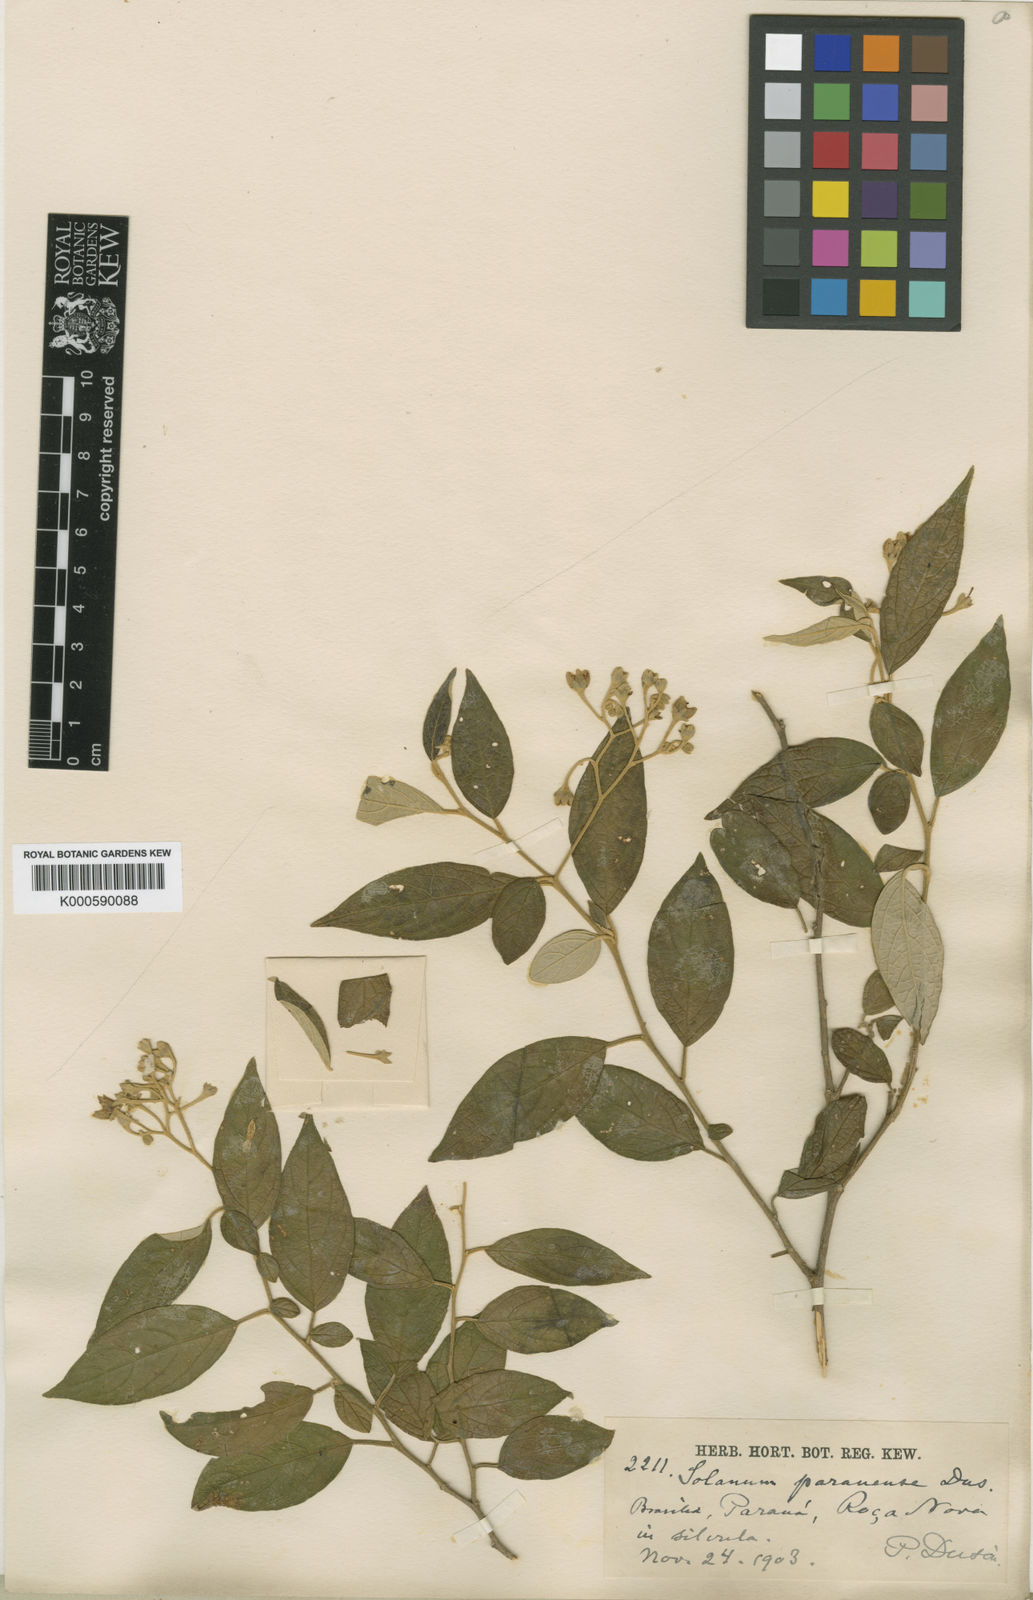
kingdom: Plantae
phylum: Tracheophyta
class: Magnoliopsida
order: Solanales
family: Solanaceae
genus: Solanum
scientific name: Solanum
